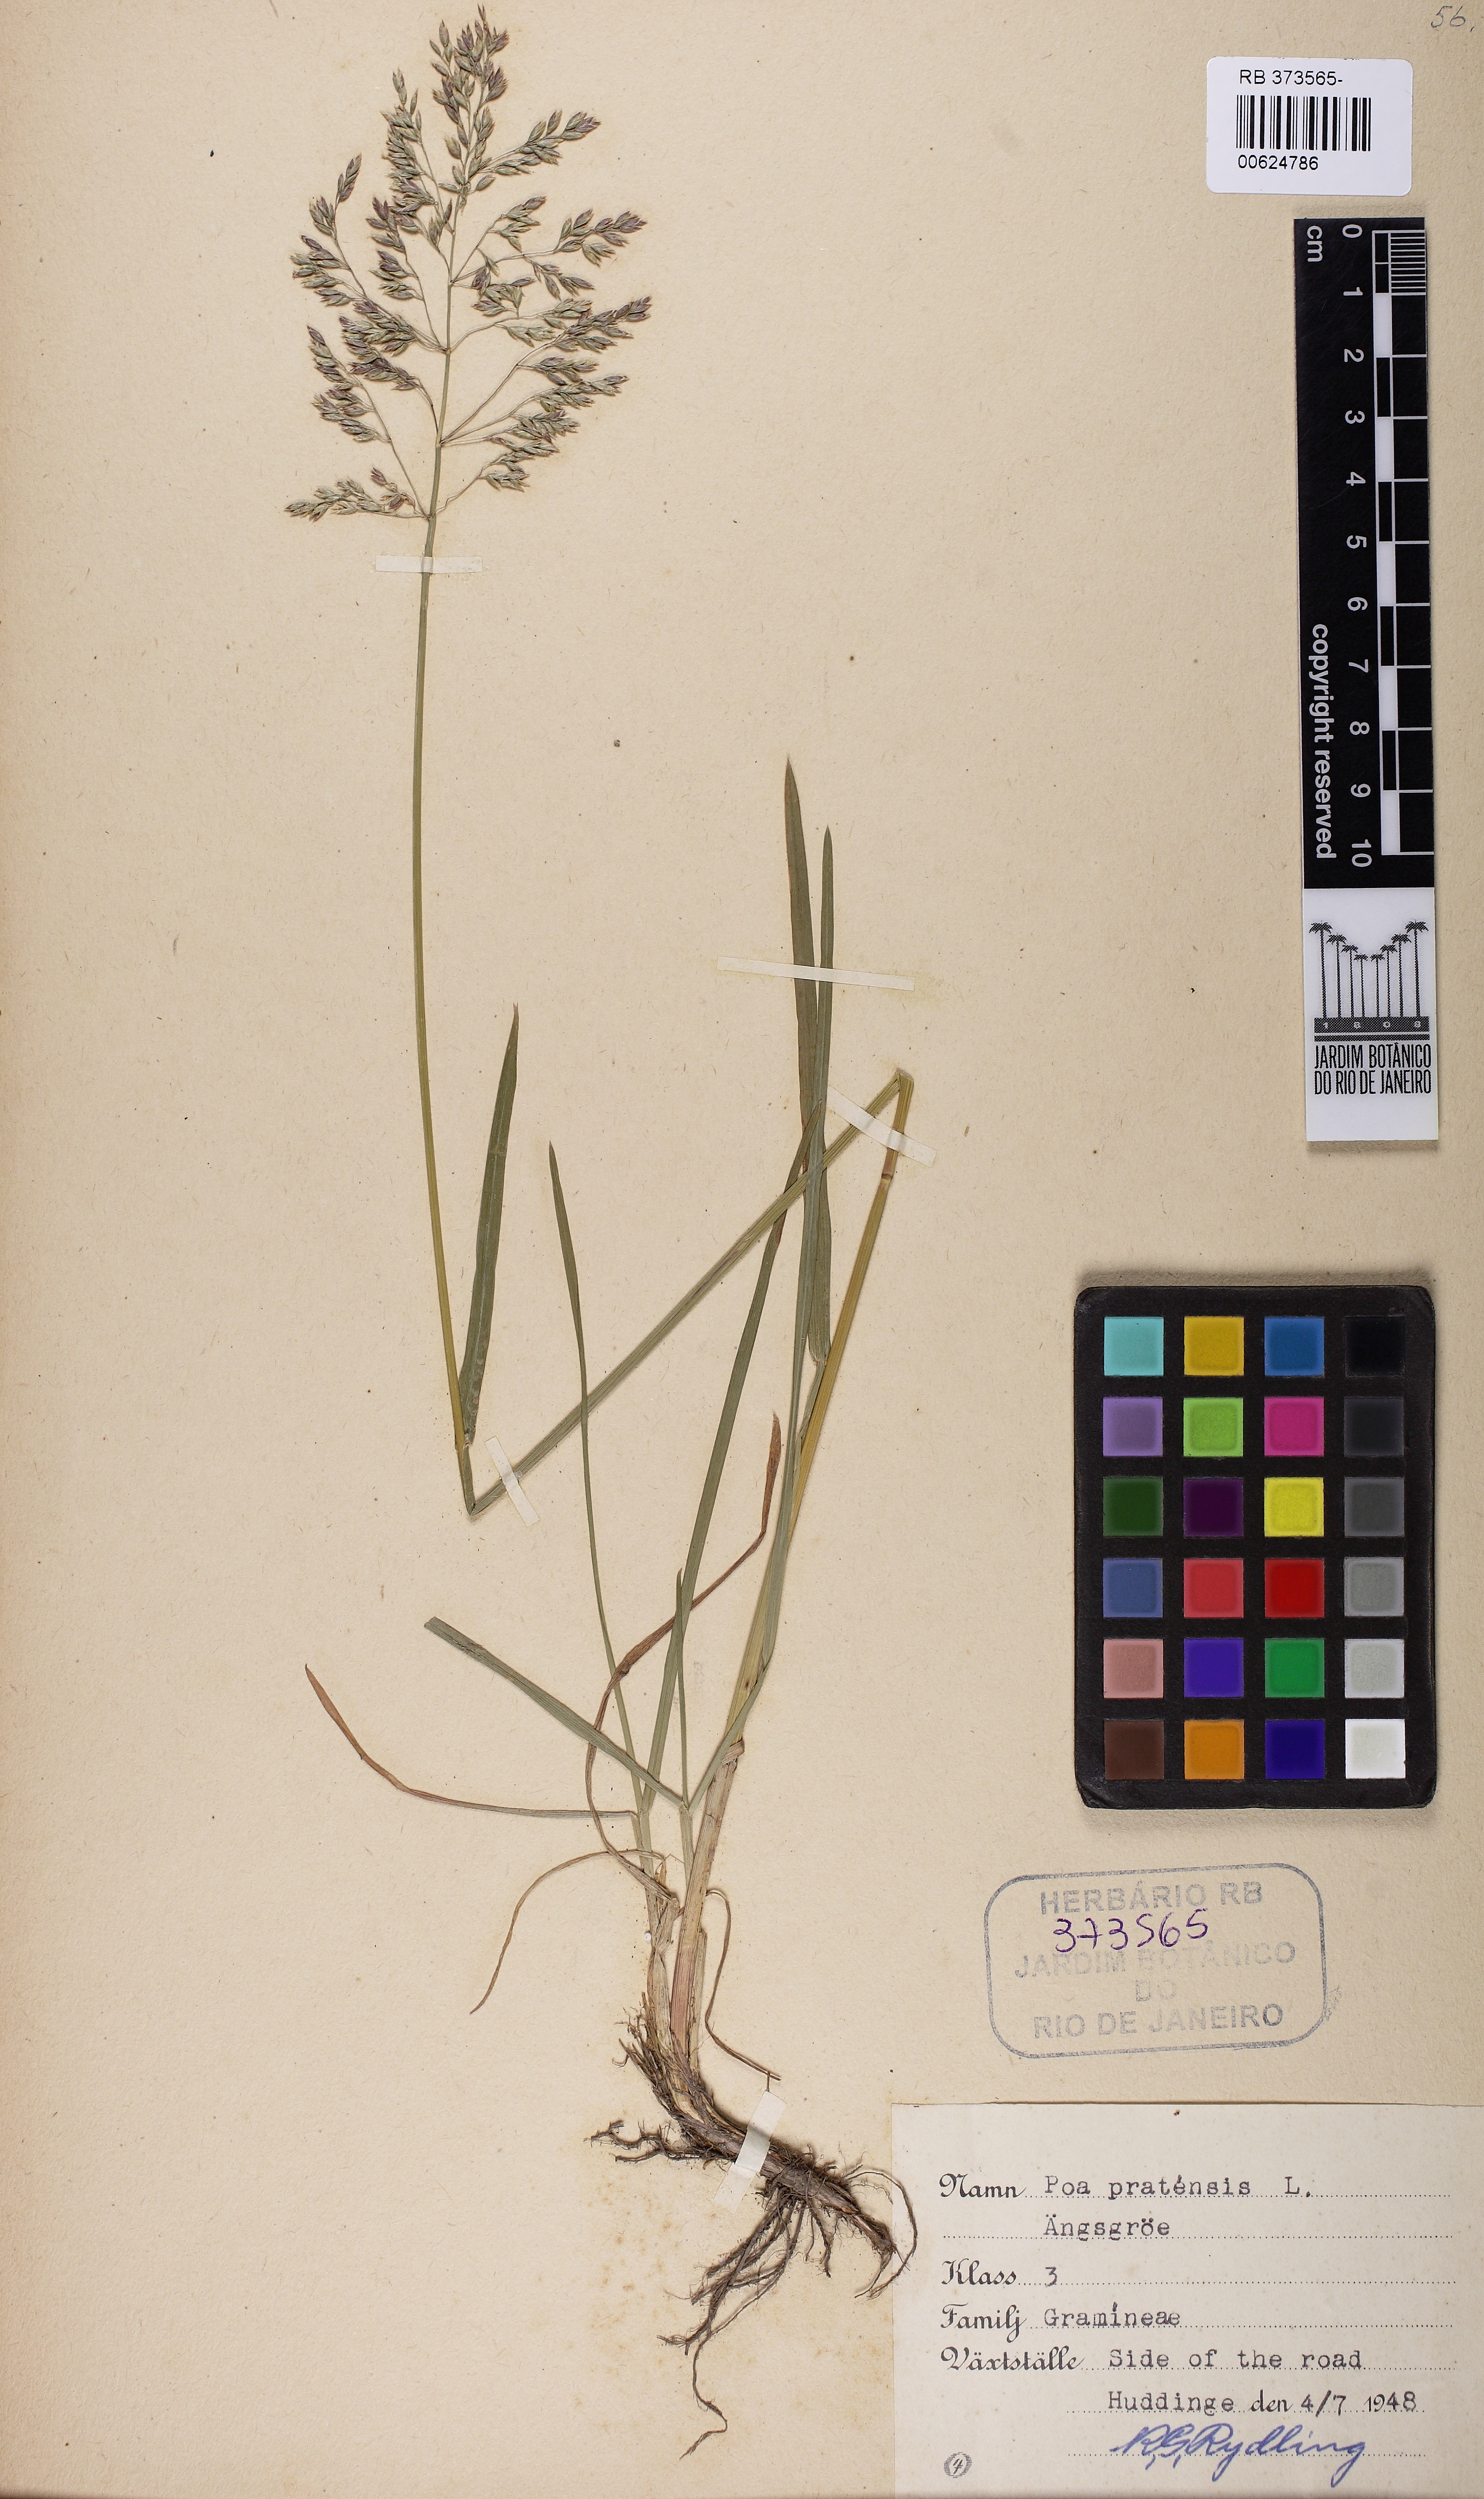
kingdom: Plantae
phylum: Tracheophyta
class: Liliopsida
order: Poales
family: Poaceae
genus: Poa
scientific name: Poa pratensis
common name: Kentucky bluegrass
